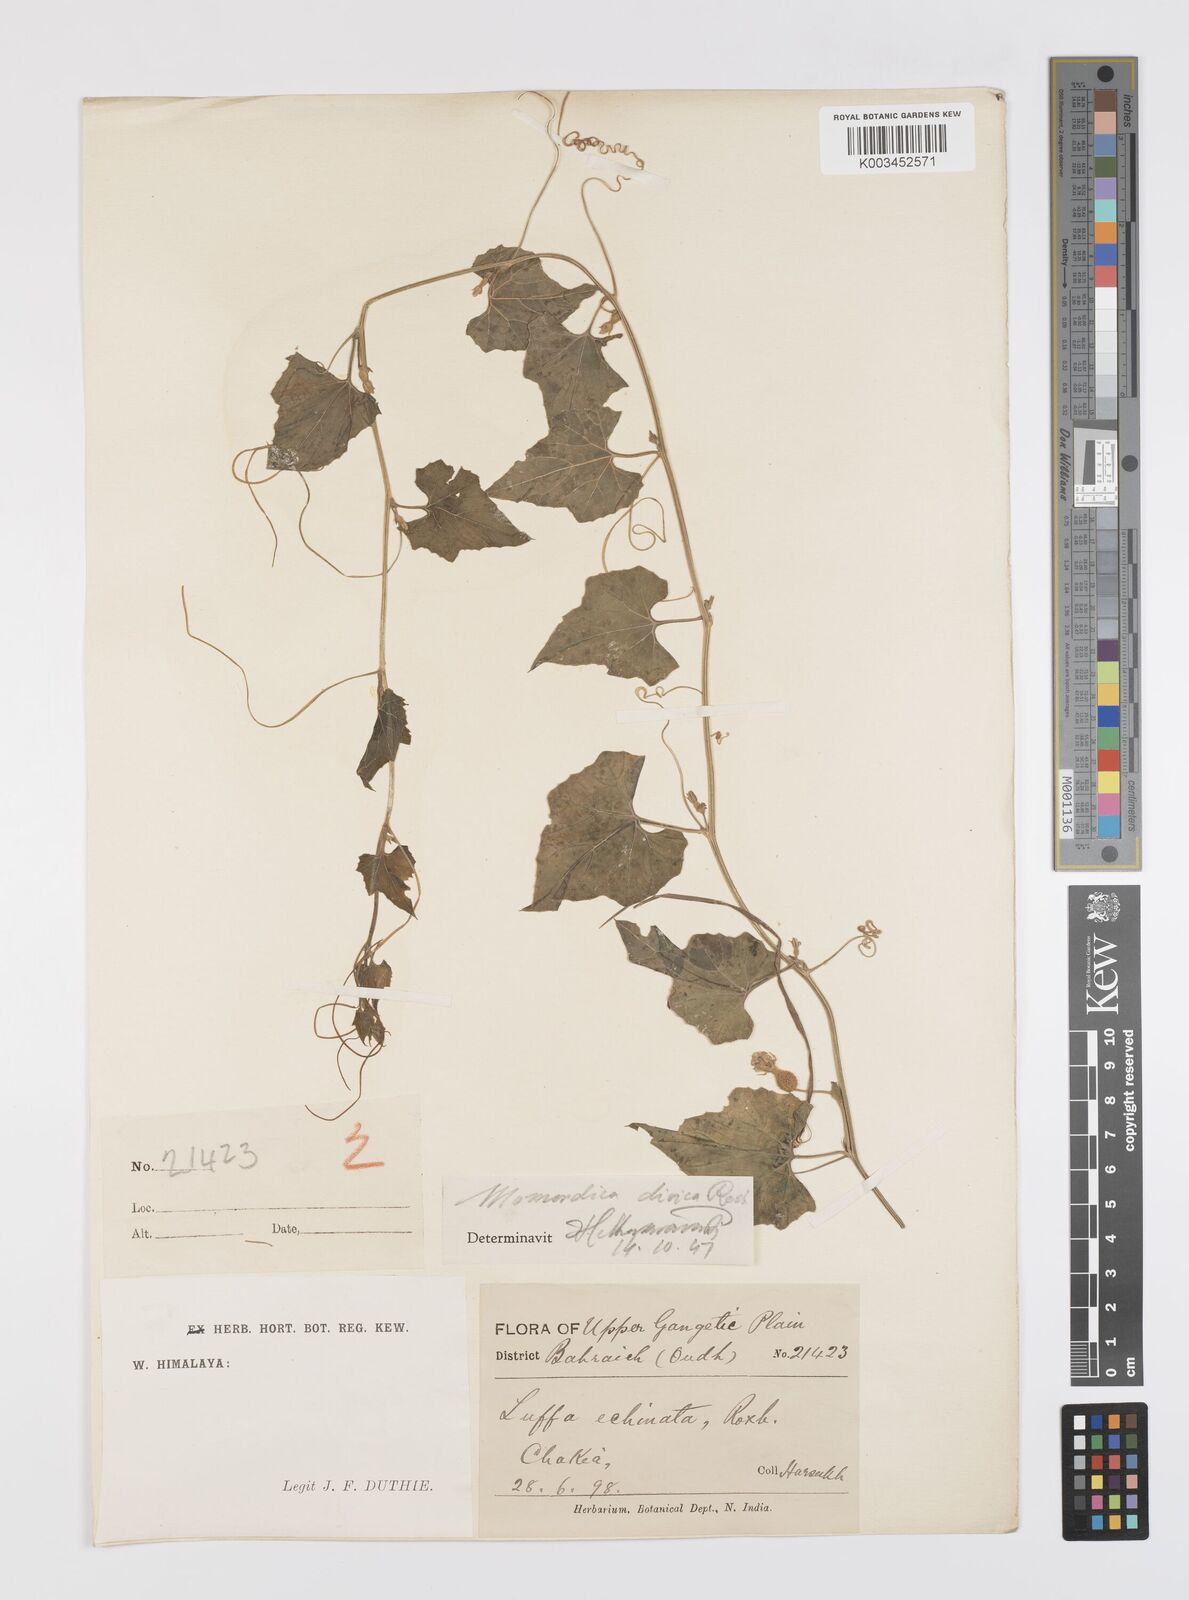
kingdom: Plantae
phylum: Tracheophyta
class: Magnoliopsida
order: Cucurbitales
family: Cucurbitaceae
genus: Momordica
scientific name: Momordica dioica
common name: Spine gourd
